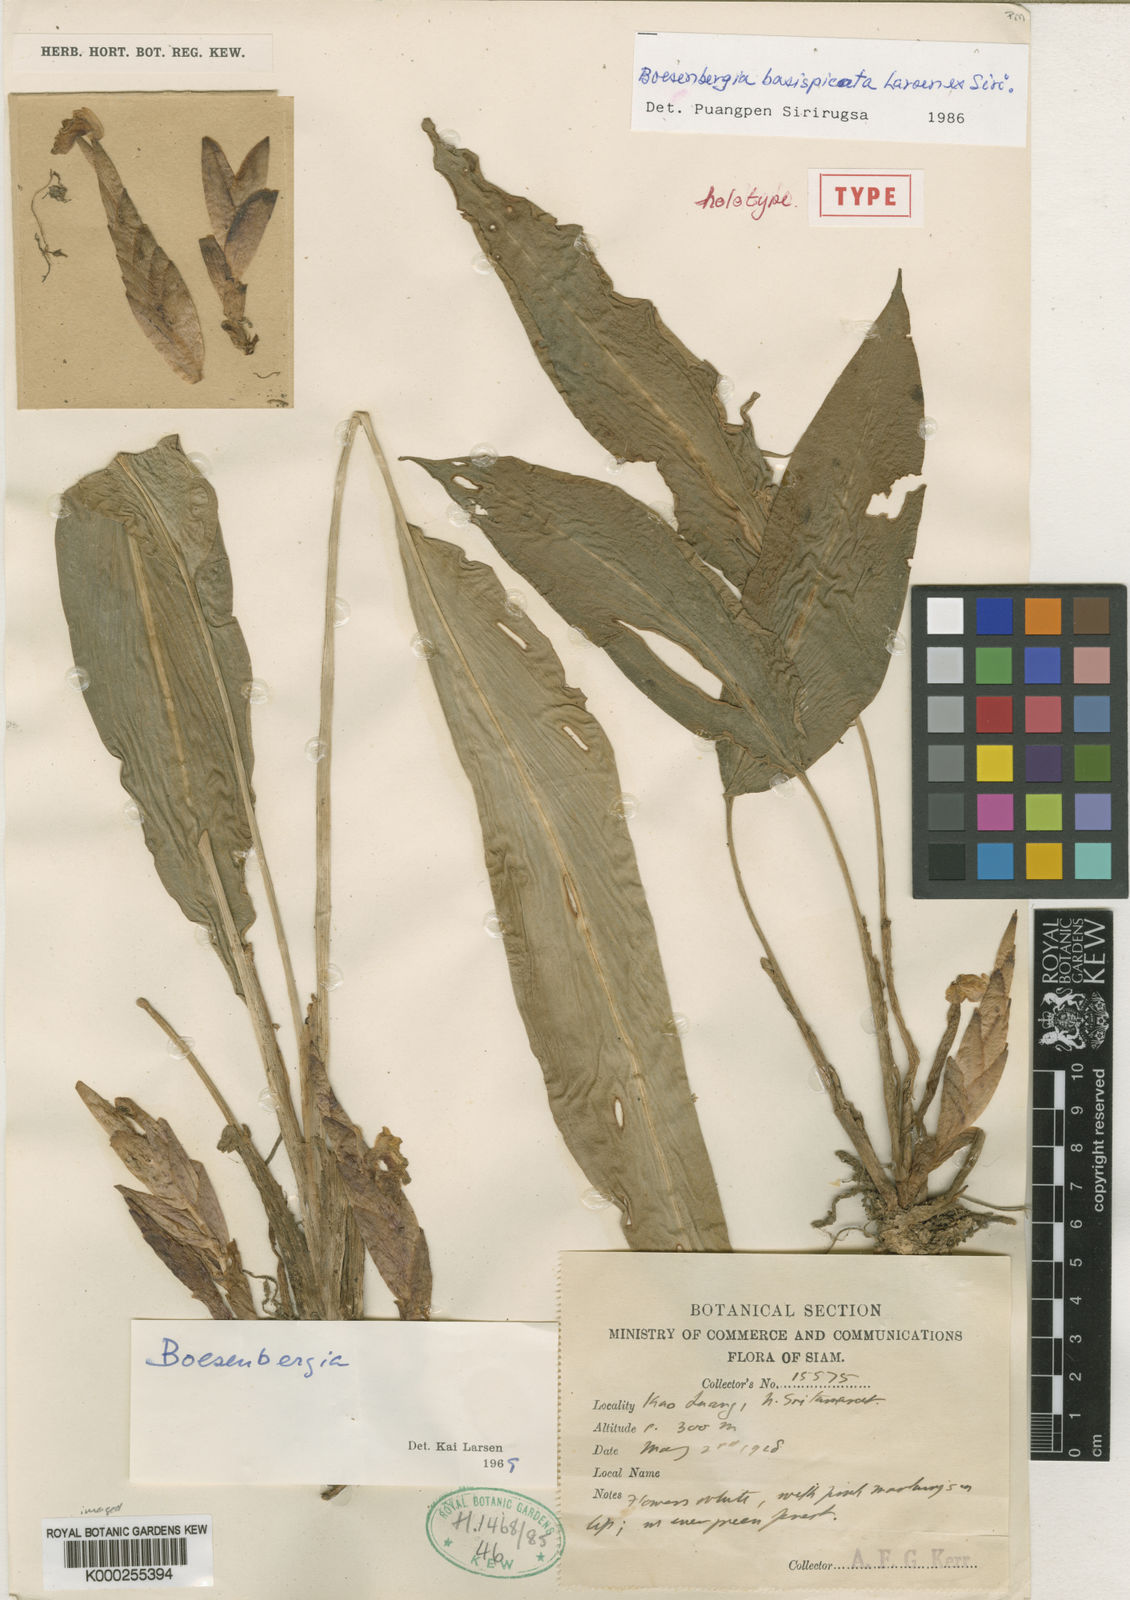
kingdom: Plantae
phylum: Tracheophyta
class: Liliopsida
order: Zingiberales
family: Zingiberaceae
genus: Boesenbergia
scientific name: Boesenbergia basispicata
